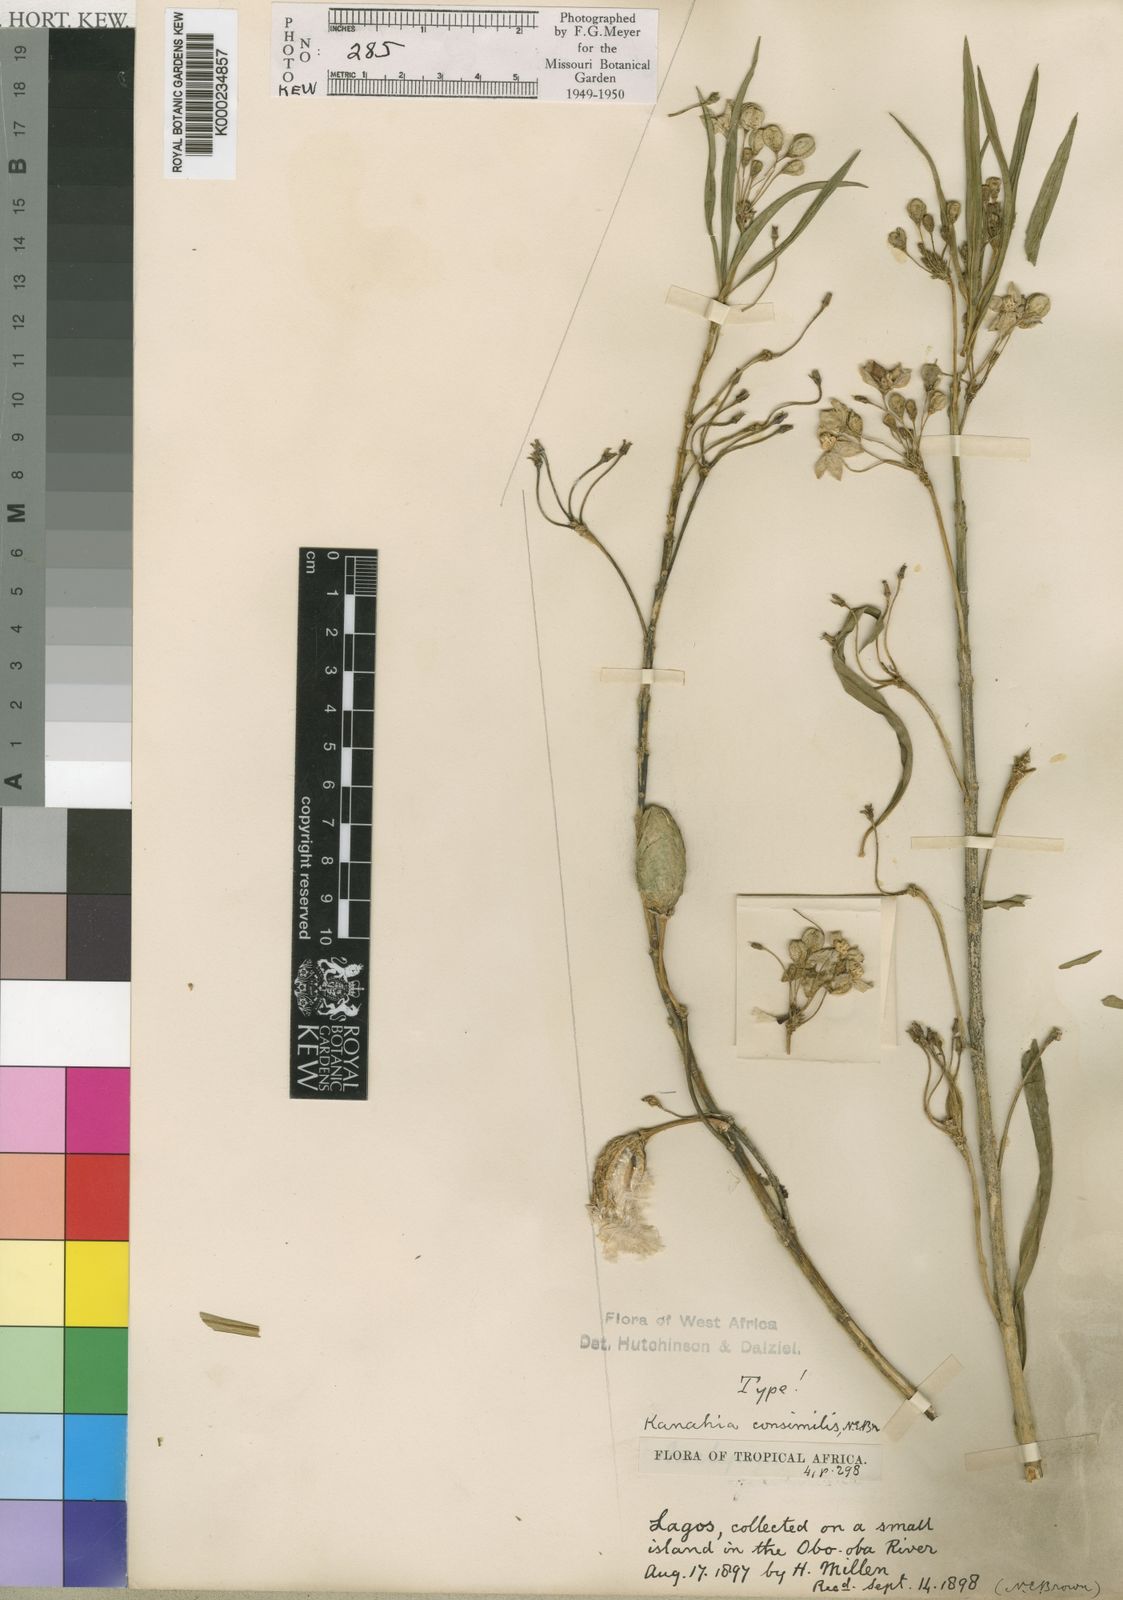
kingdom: Plantae
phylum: Tracheophyta
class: Magnoliopsida
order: Gentianales
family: Apocynaceae
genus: Kanahia
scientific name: Kanahia laniflora
